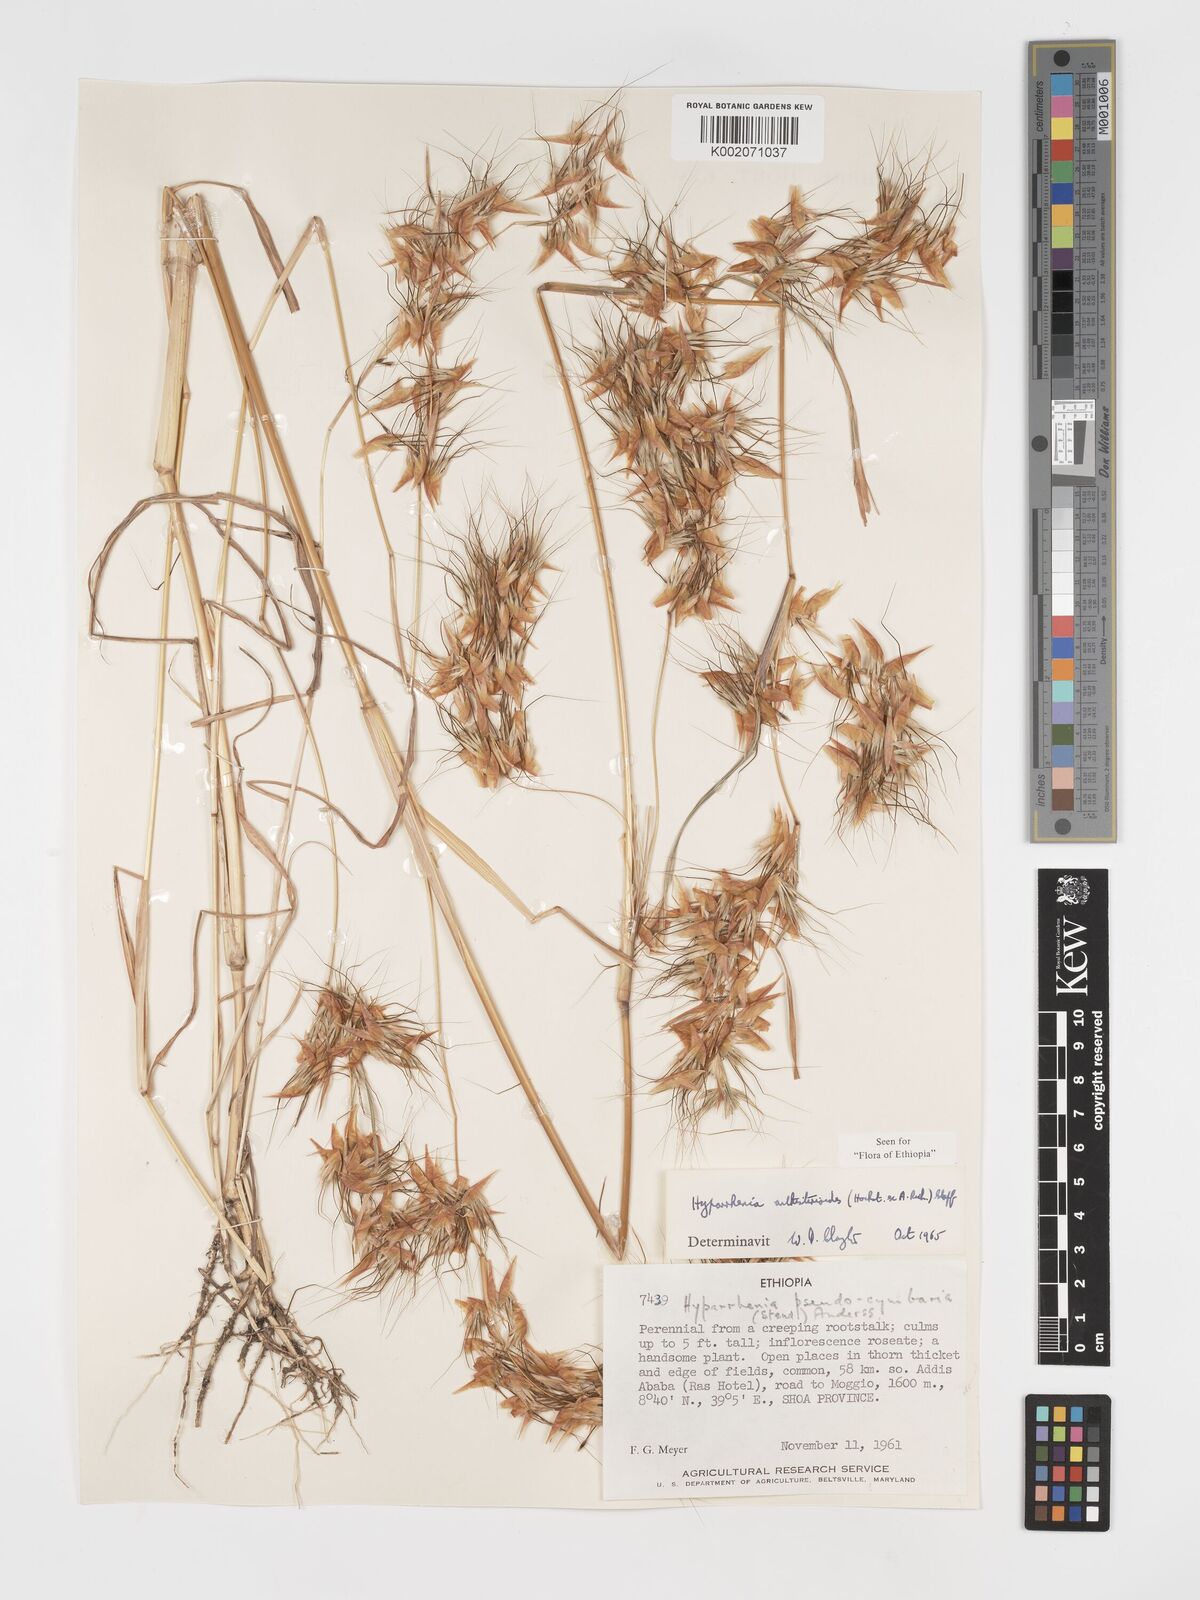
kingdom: Plantae
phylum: Tracheophyta
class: Liliopsida
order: Poales
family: Poaceae
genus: Hyparrhenia
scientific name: Hyparrhenia anthistirioides
